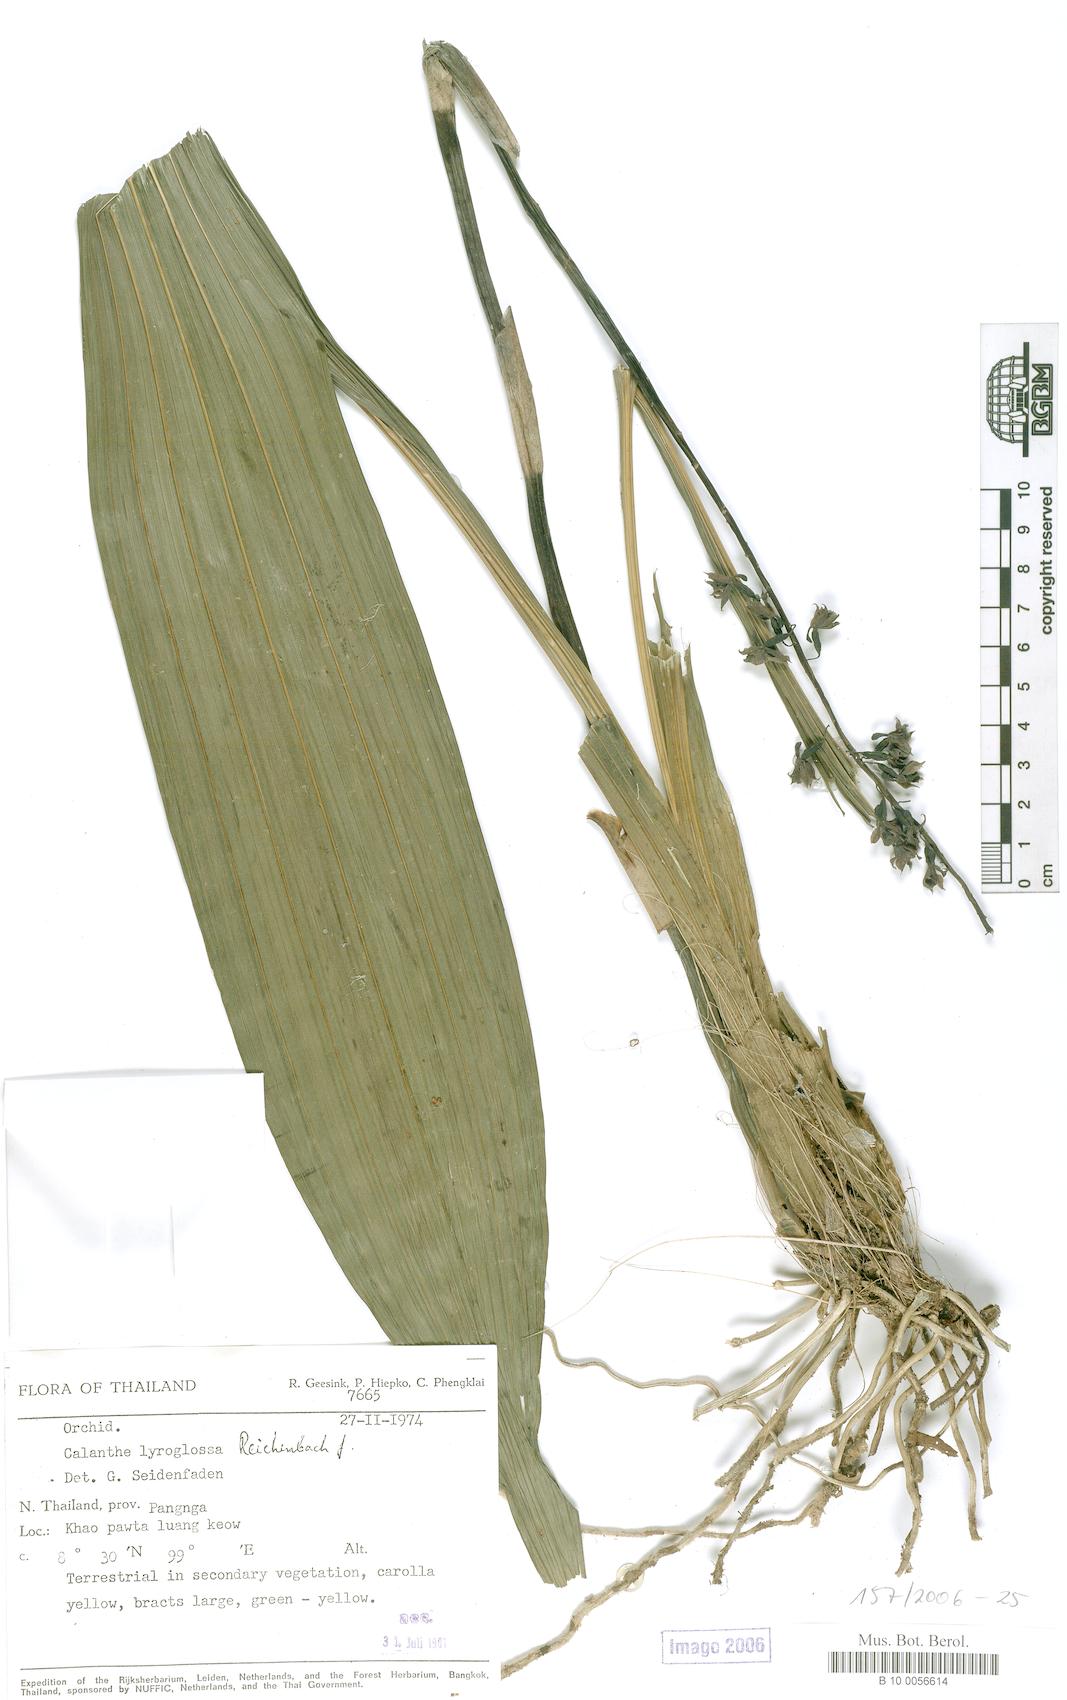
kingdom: Plantae
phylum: Tracheophyta
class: Liliopsida
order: Asparagales
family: Orchidaceae
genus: Calanthe
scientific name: Calanthe lyroglossa
